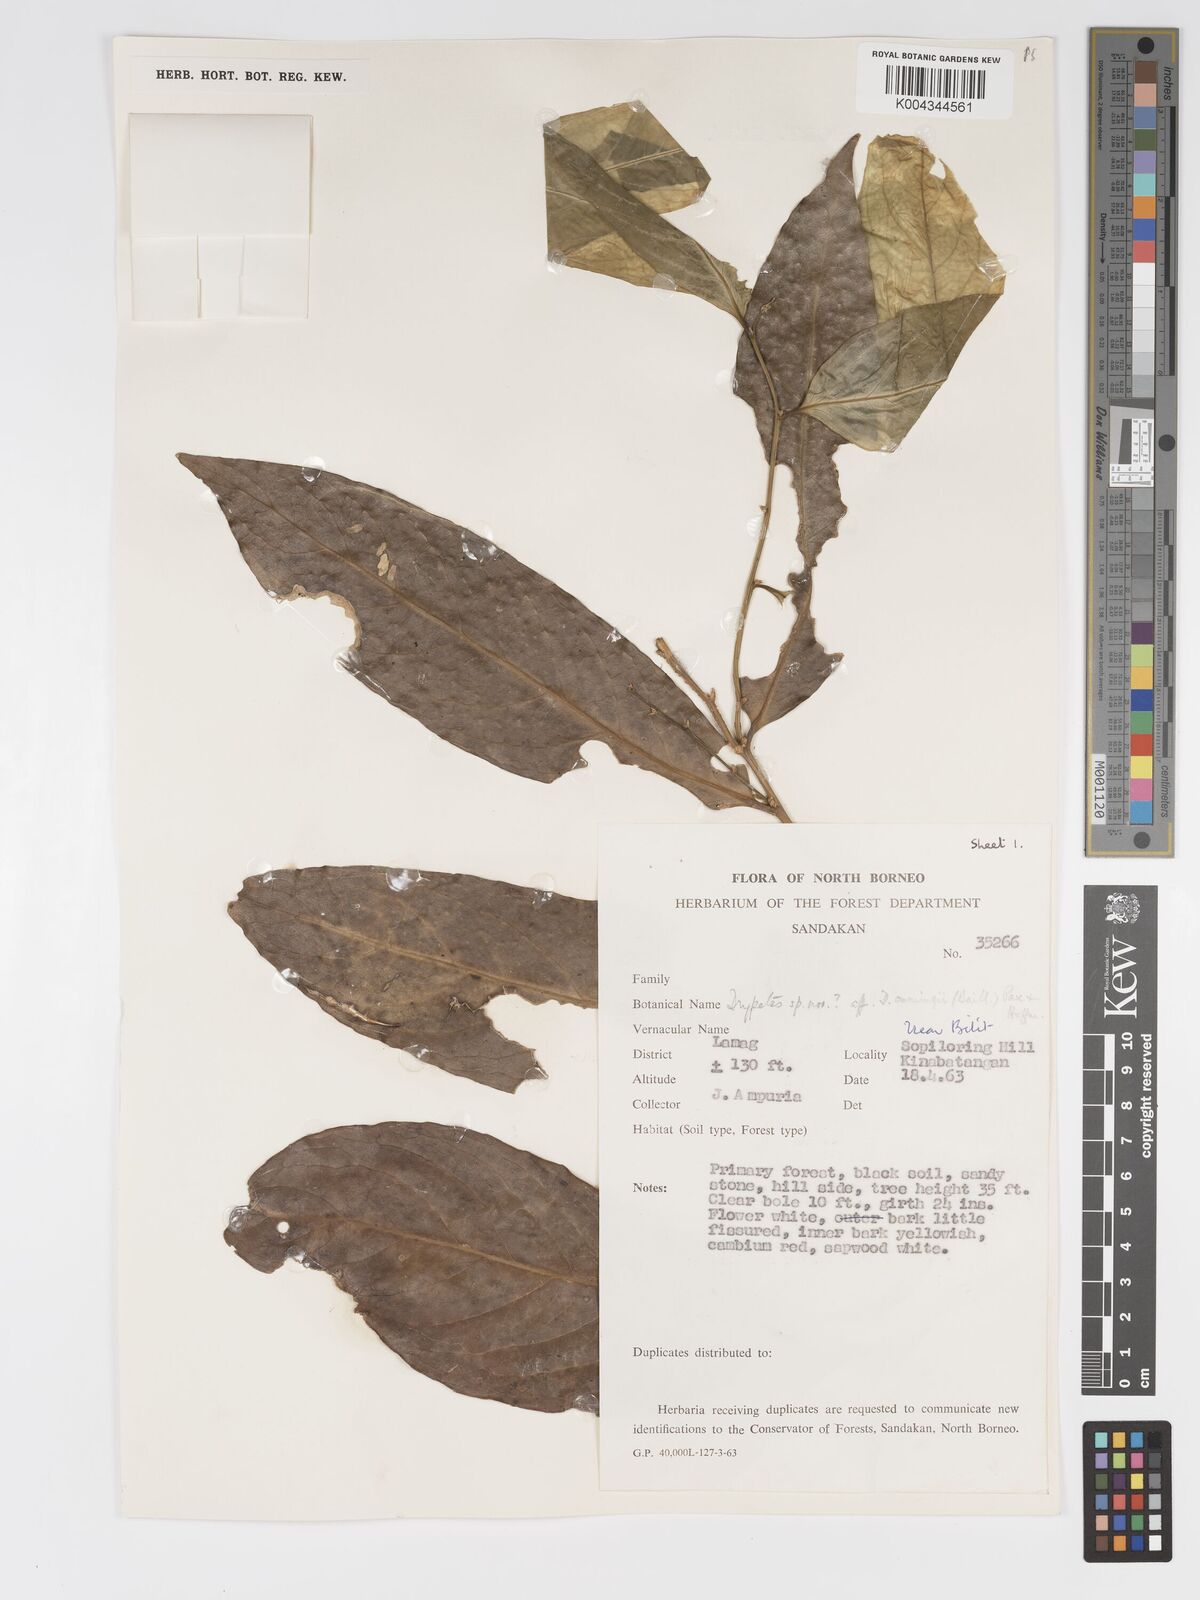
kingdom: Plantae
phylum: Tracheophyta
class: Magnoliopsida
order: Malpighiales
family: Putranjivaceae
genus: Drypetes
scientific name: Drypetes neglecta
